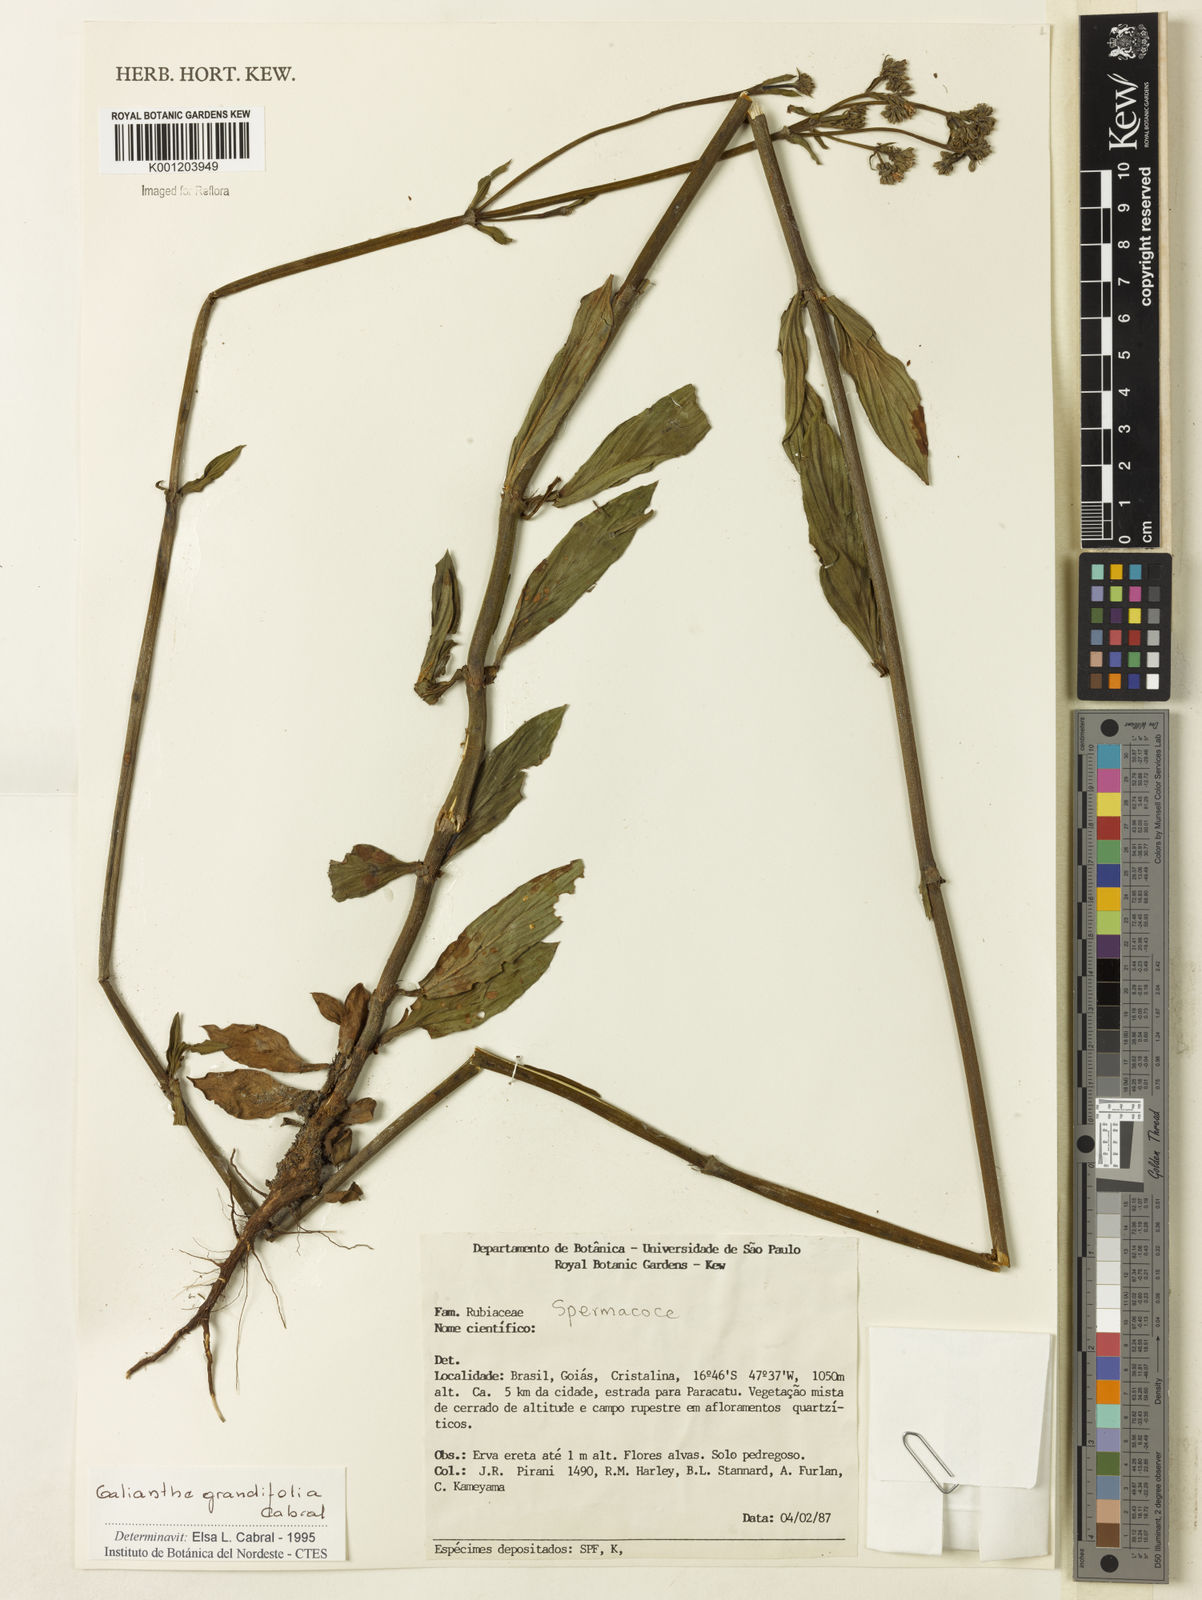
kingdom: Plantae
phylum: Tracheophyta
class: Magnoliopsida
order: Gentianales
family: Rubiaceae
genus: Galianthe
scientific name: Galianthe grandifolia
